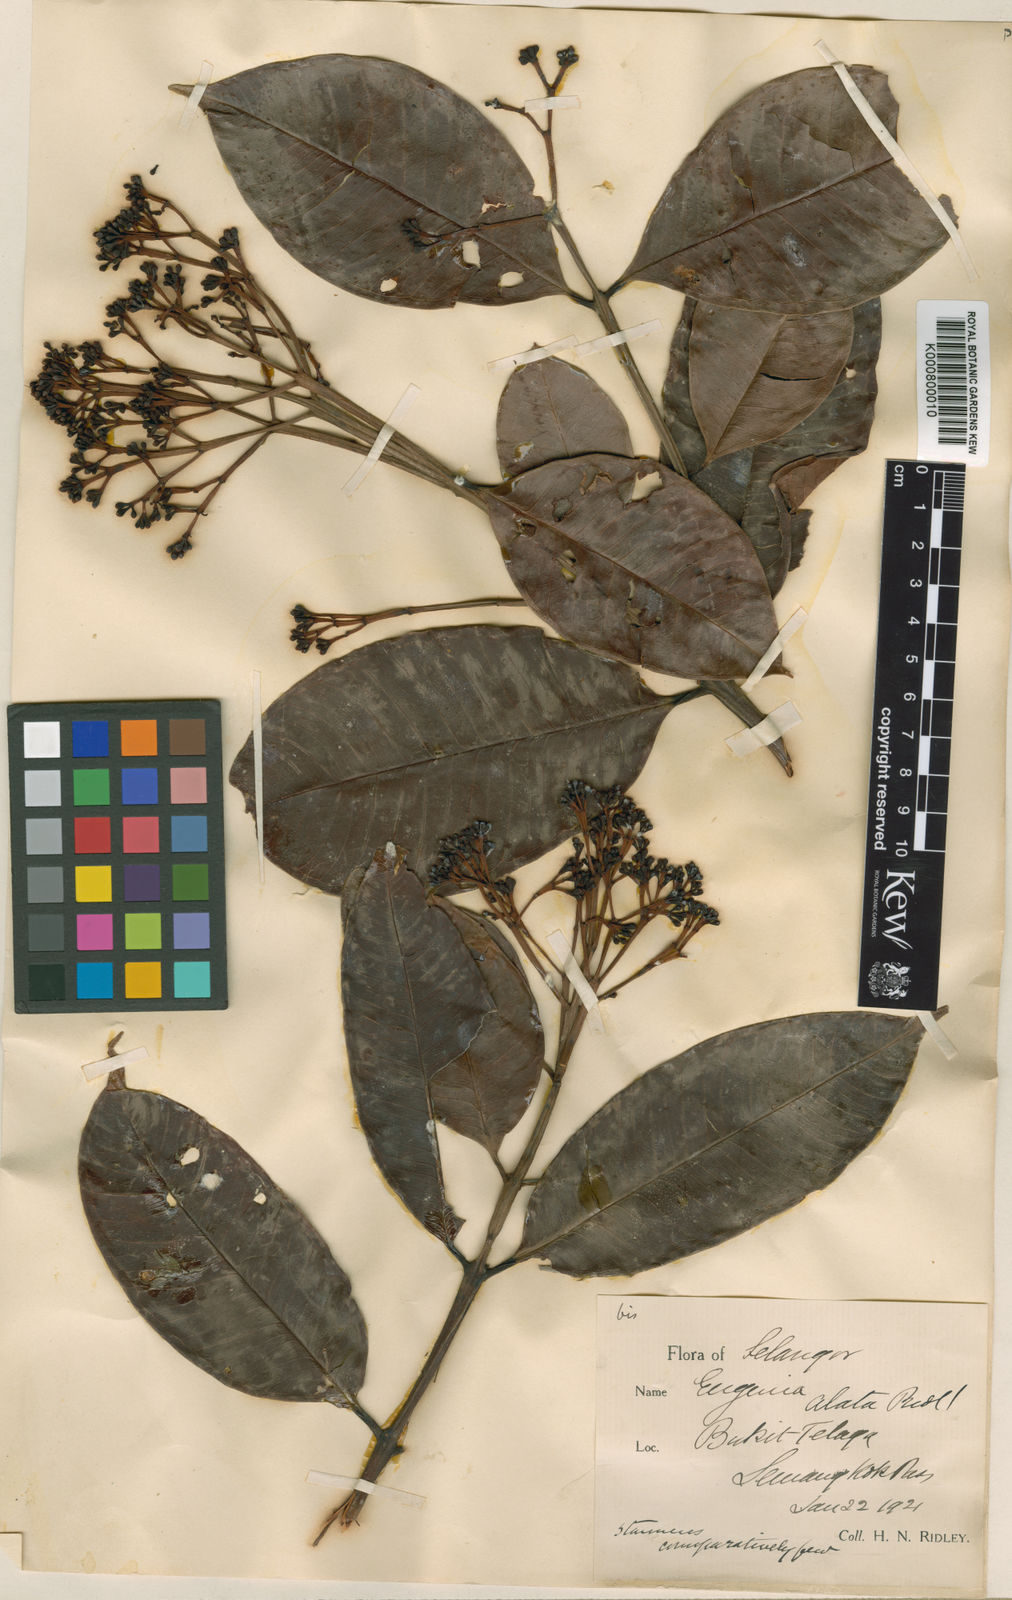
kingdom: Plantae
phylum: Tracheophyta
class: Magnoliopsida
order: Myrtales
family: Myrtaceae
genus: Syzygium
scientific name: Syzygium
